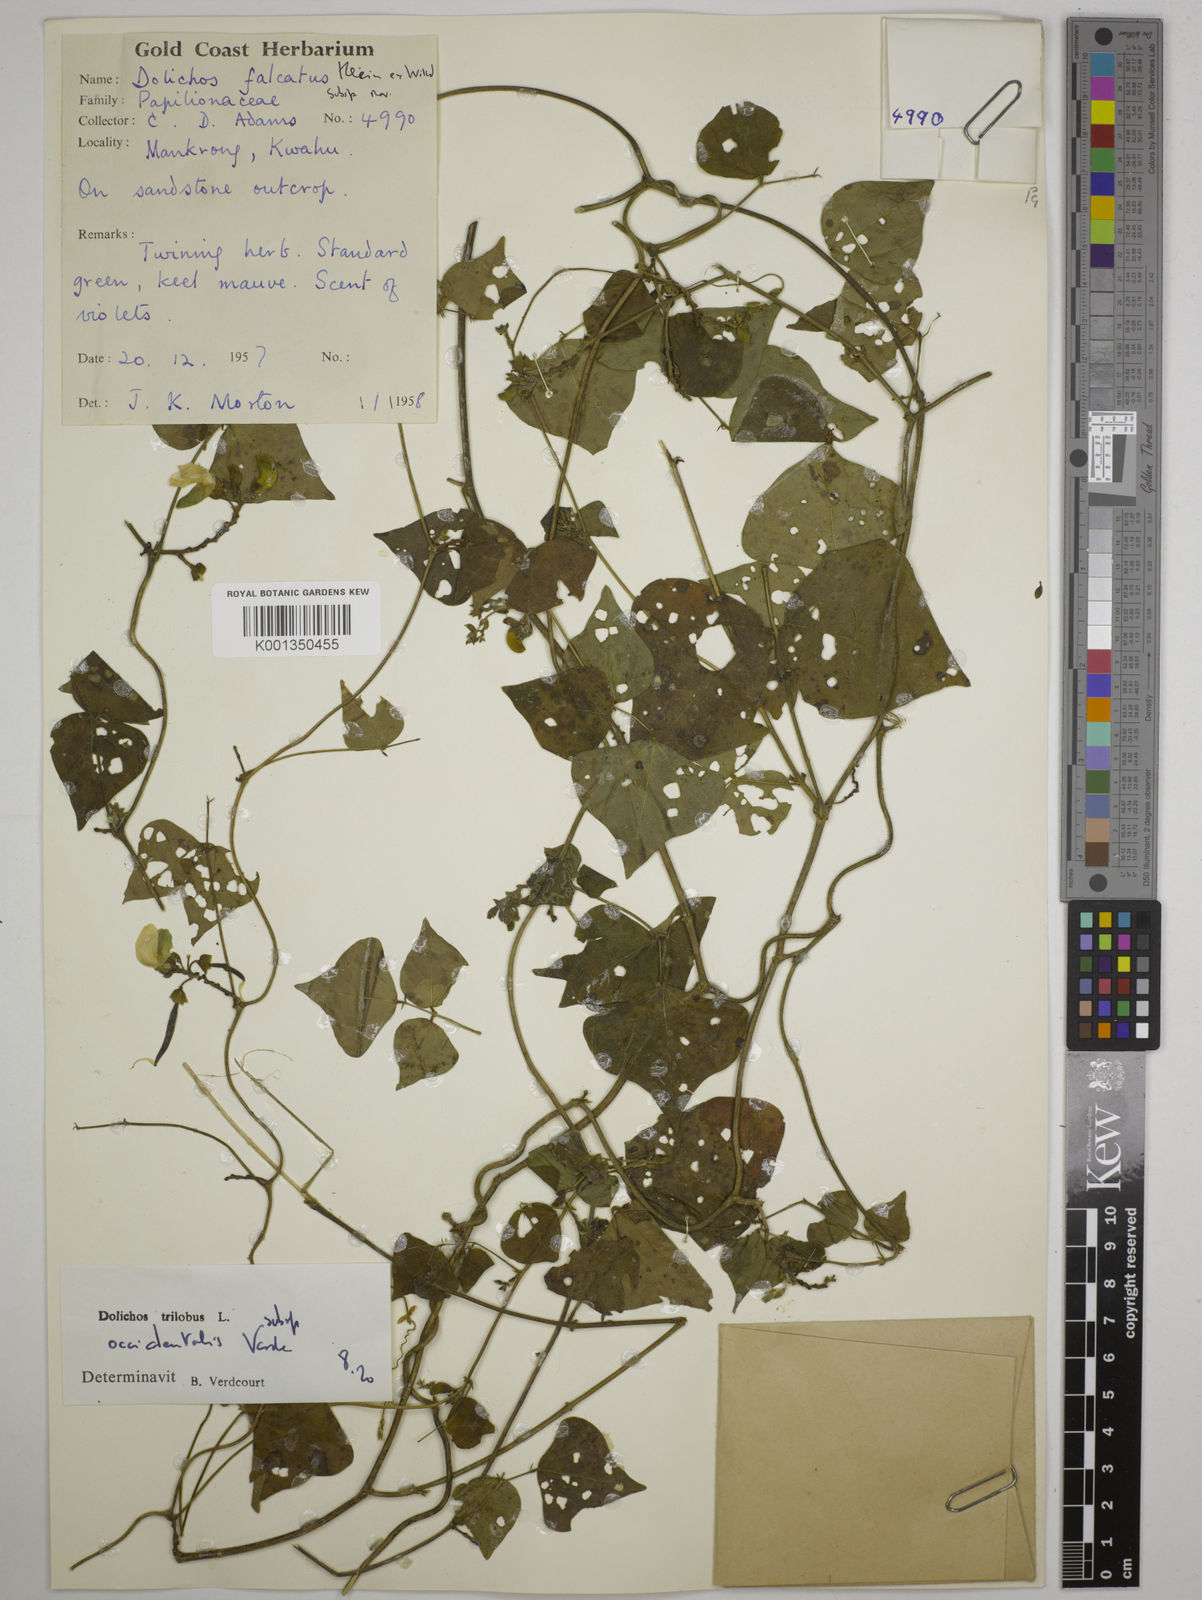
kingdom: Plantae
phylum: Tracheophyta
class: Magnoliopsida
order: Fabales
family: Fabaceae
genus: Dolichos
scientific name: Dolichos
